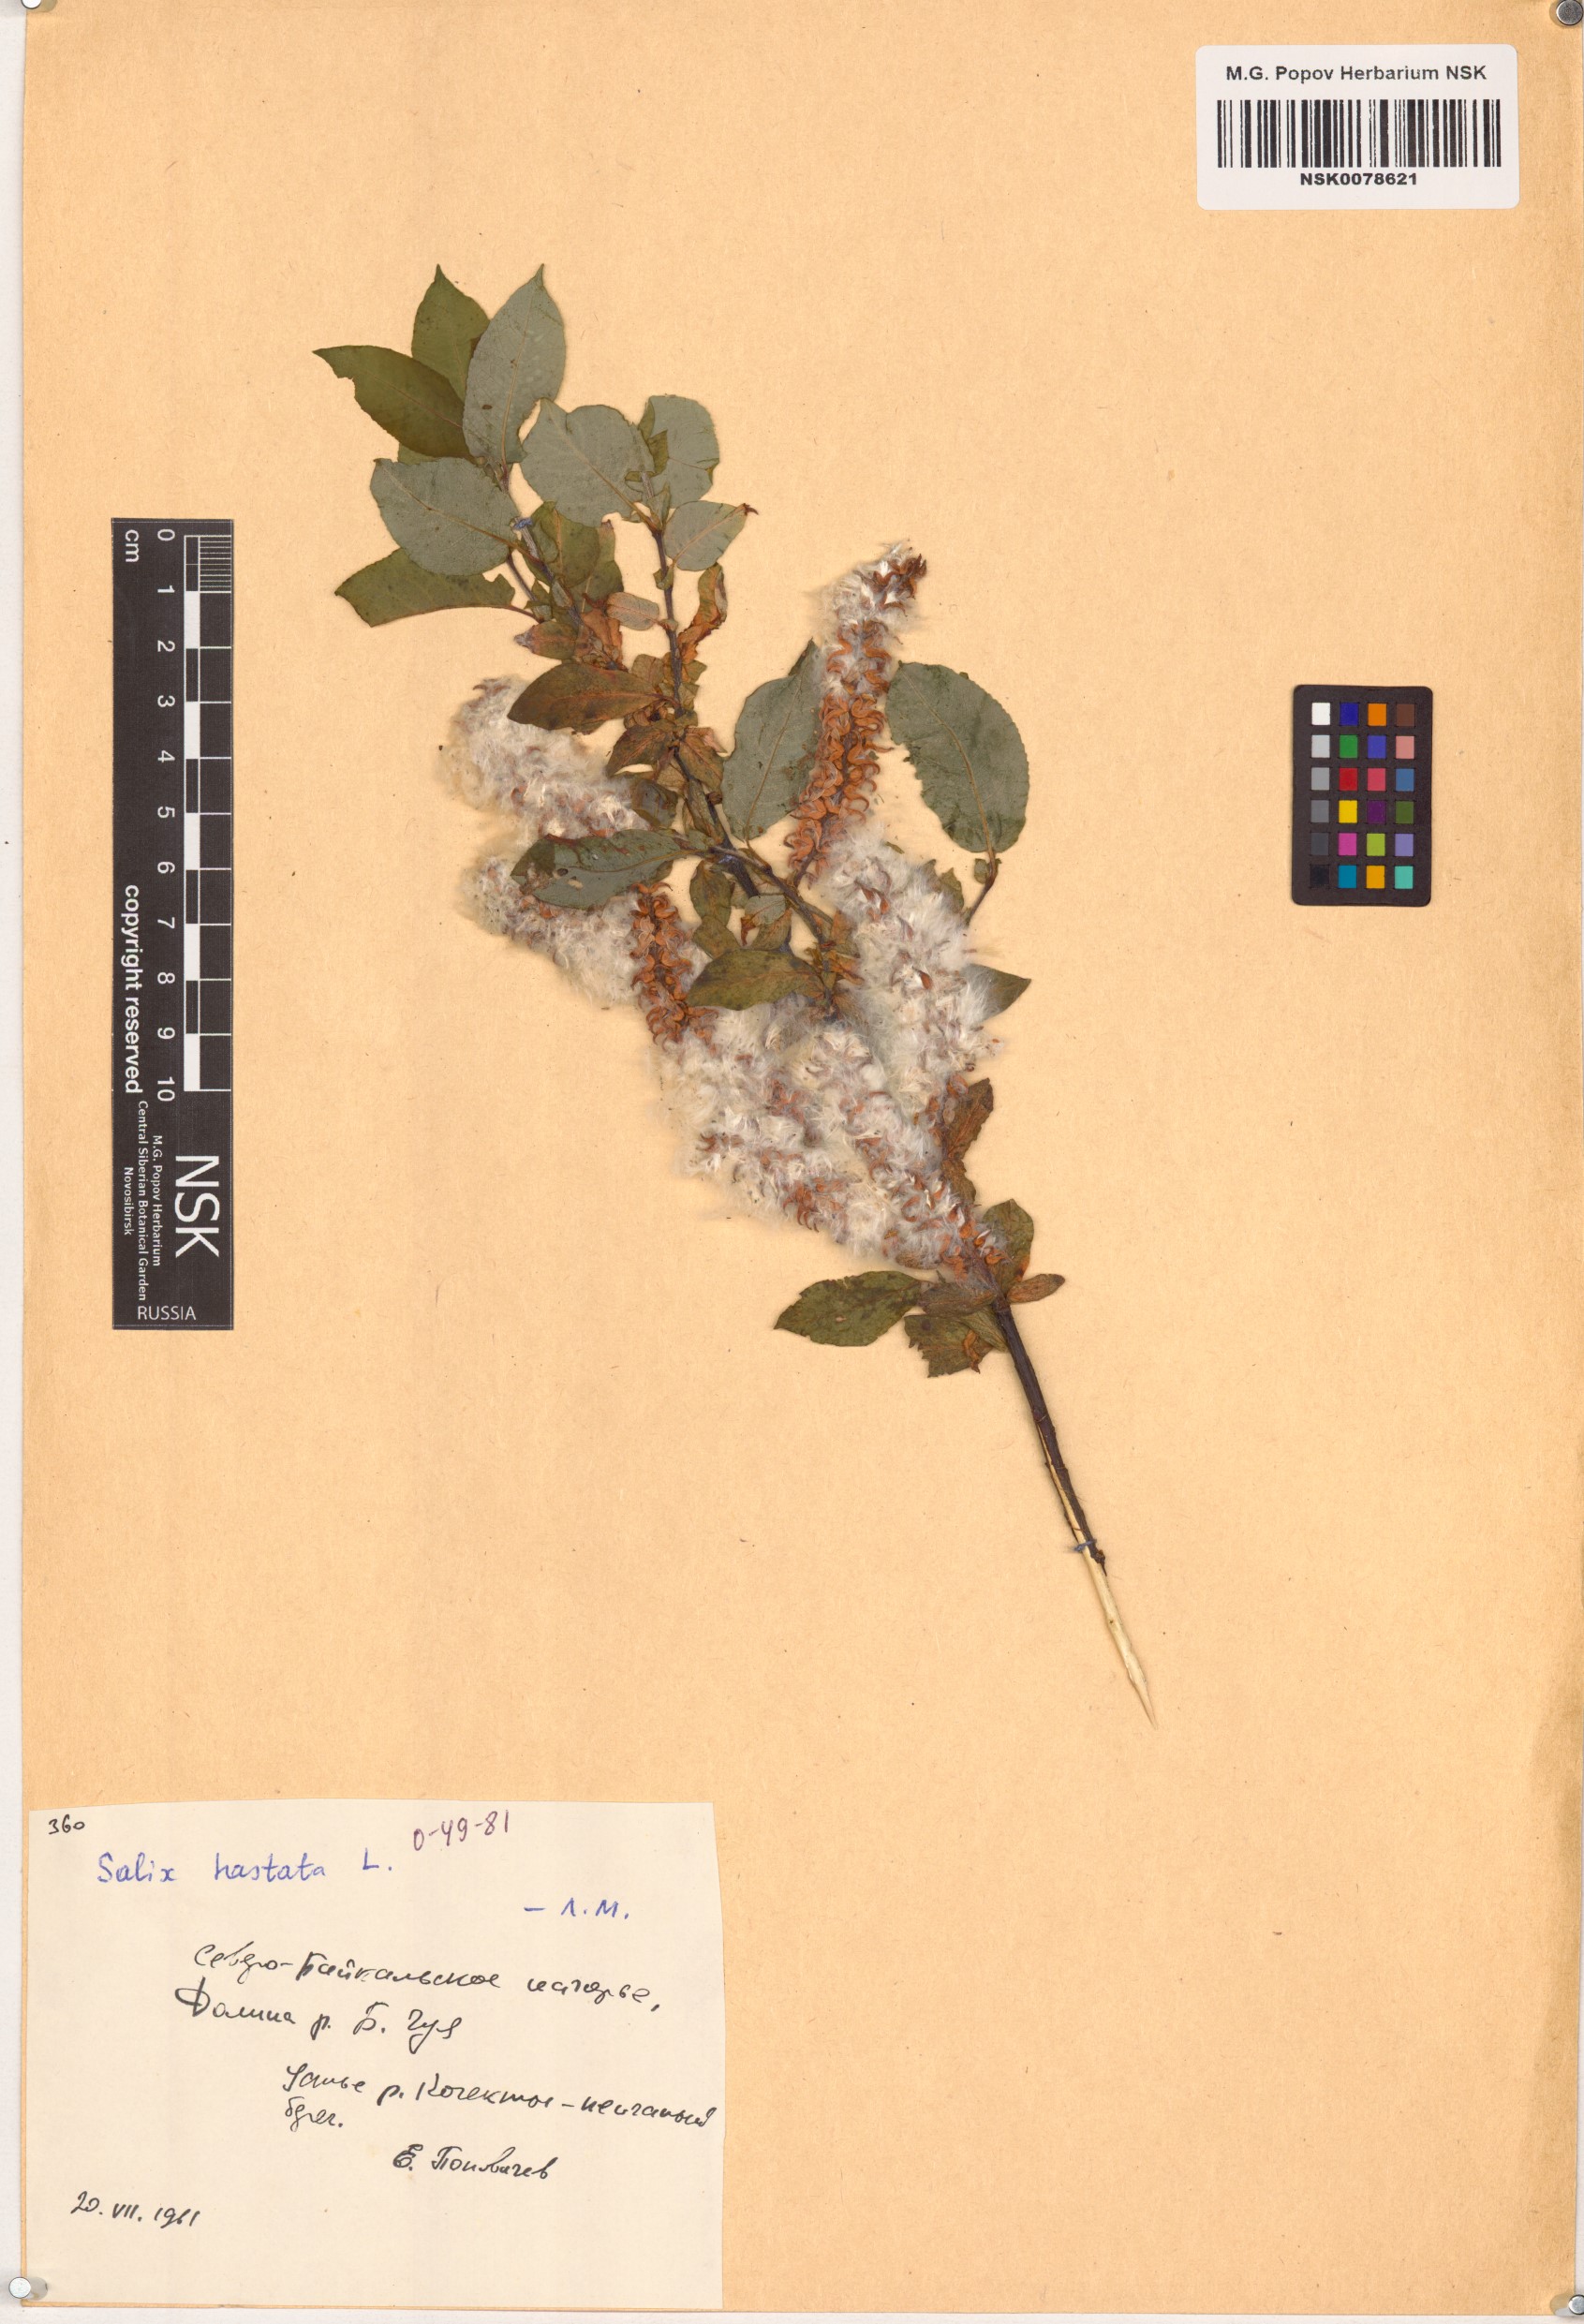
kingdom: Plantae
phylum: Tracheophyta
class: Magnoliopsida
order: Malpighiales
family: Salicaceae
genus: Salix
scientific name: Salix hastata
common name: Halberd willow
